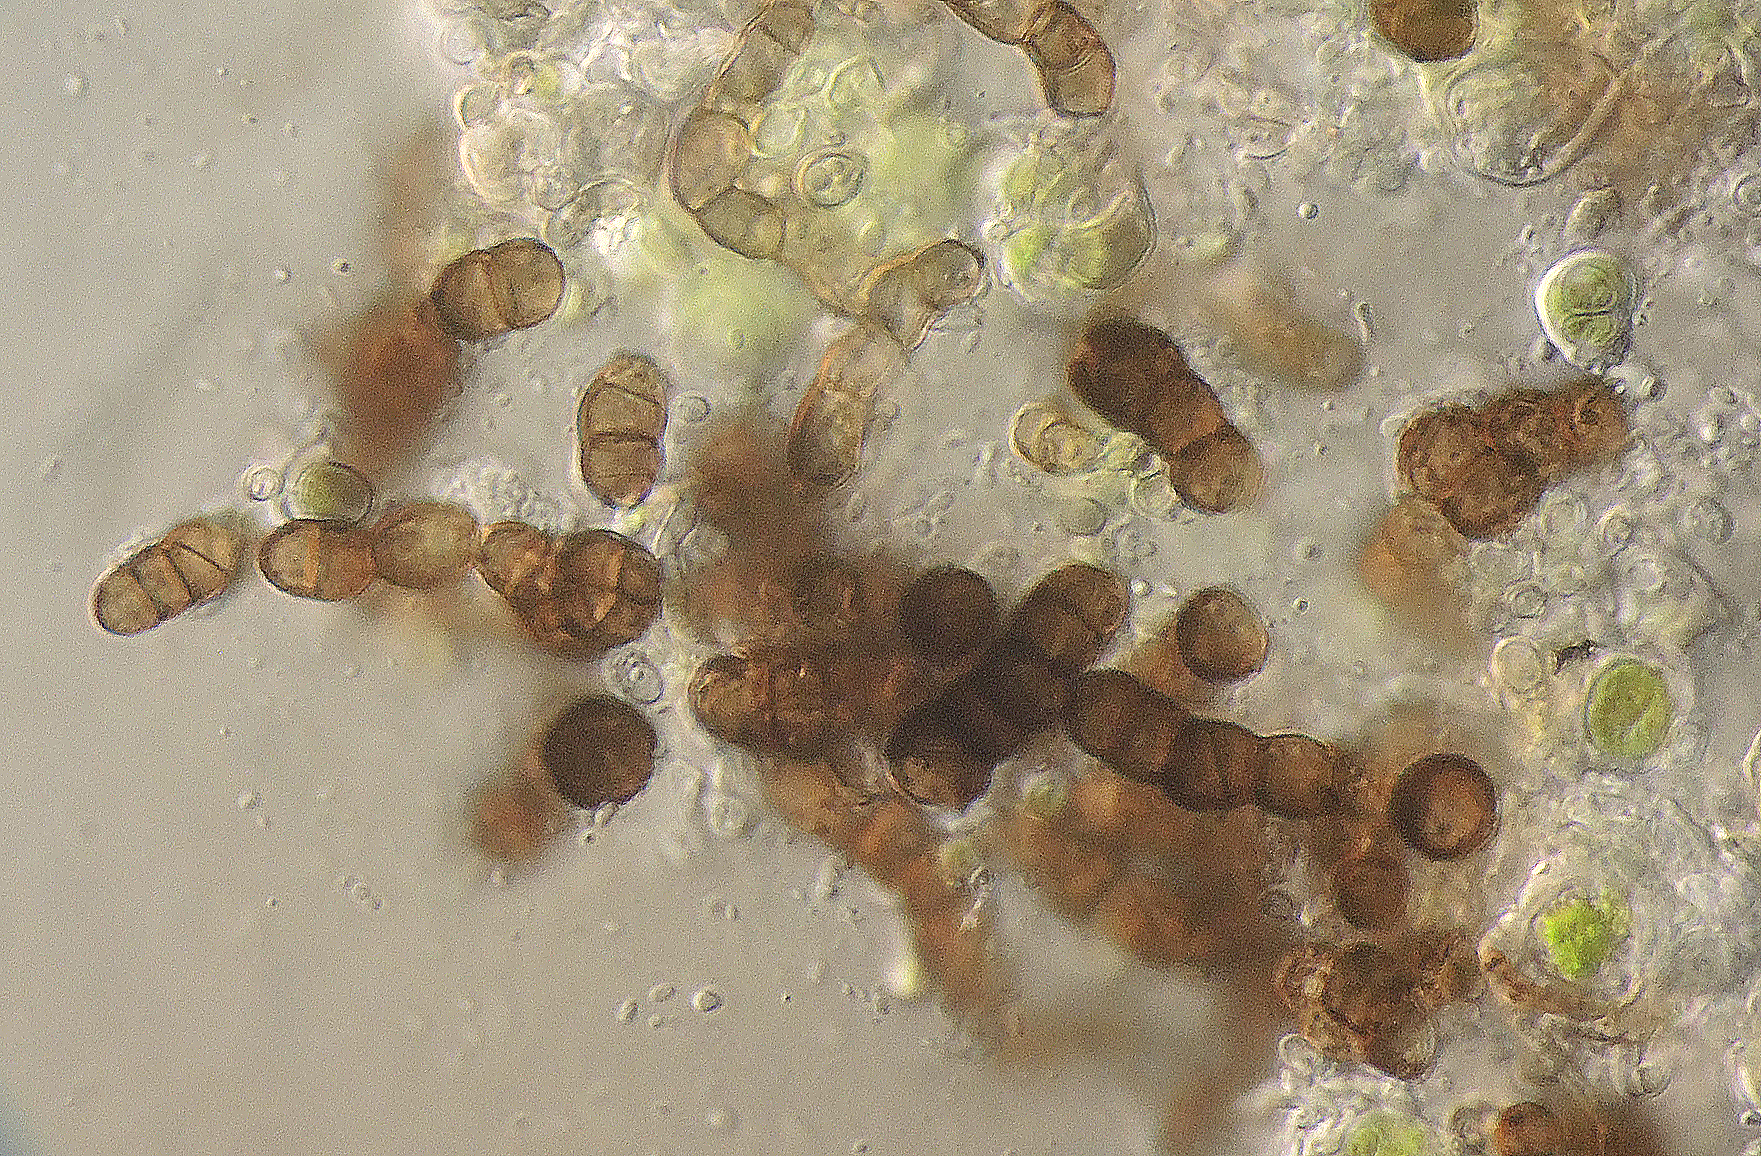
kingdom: Fungi
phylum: Ascomycota
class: Dothideomycetes
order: Dothideales
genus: Monodictys
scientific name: Monodictys castaneae
